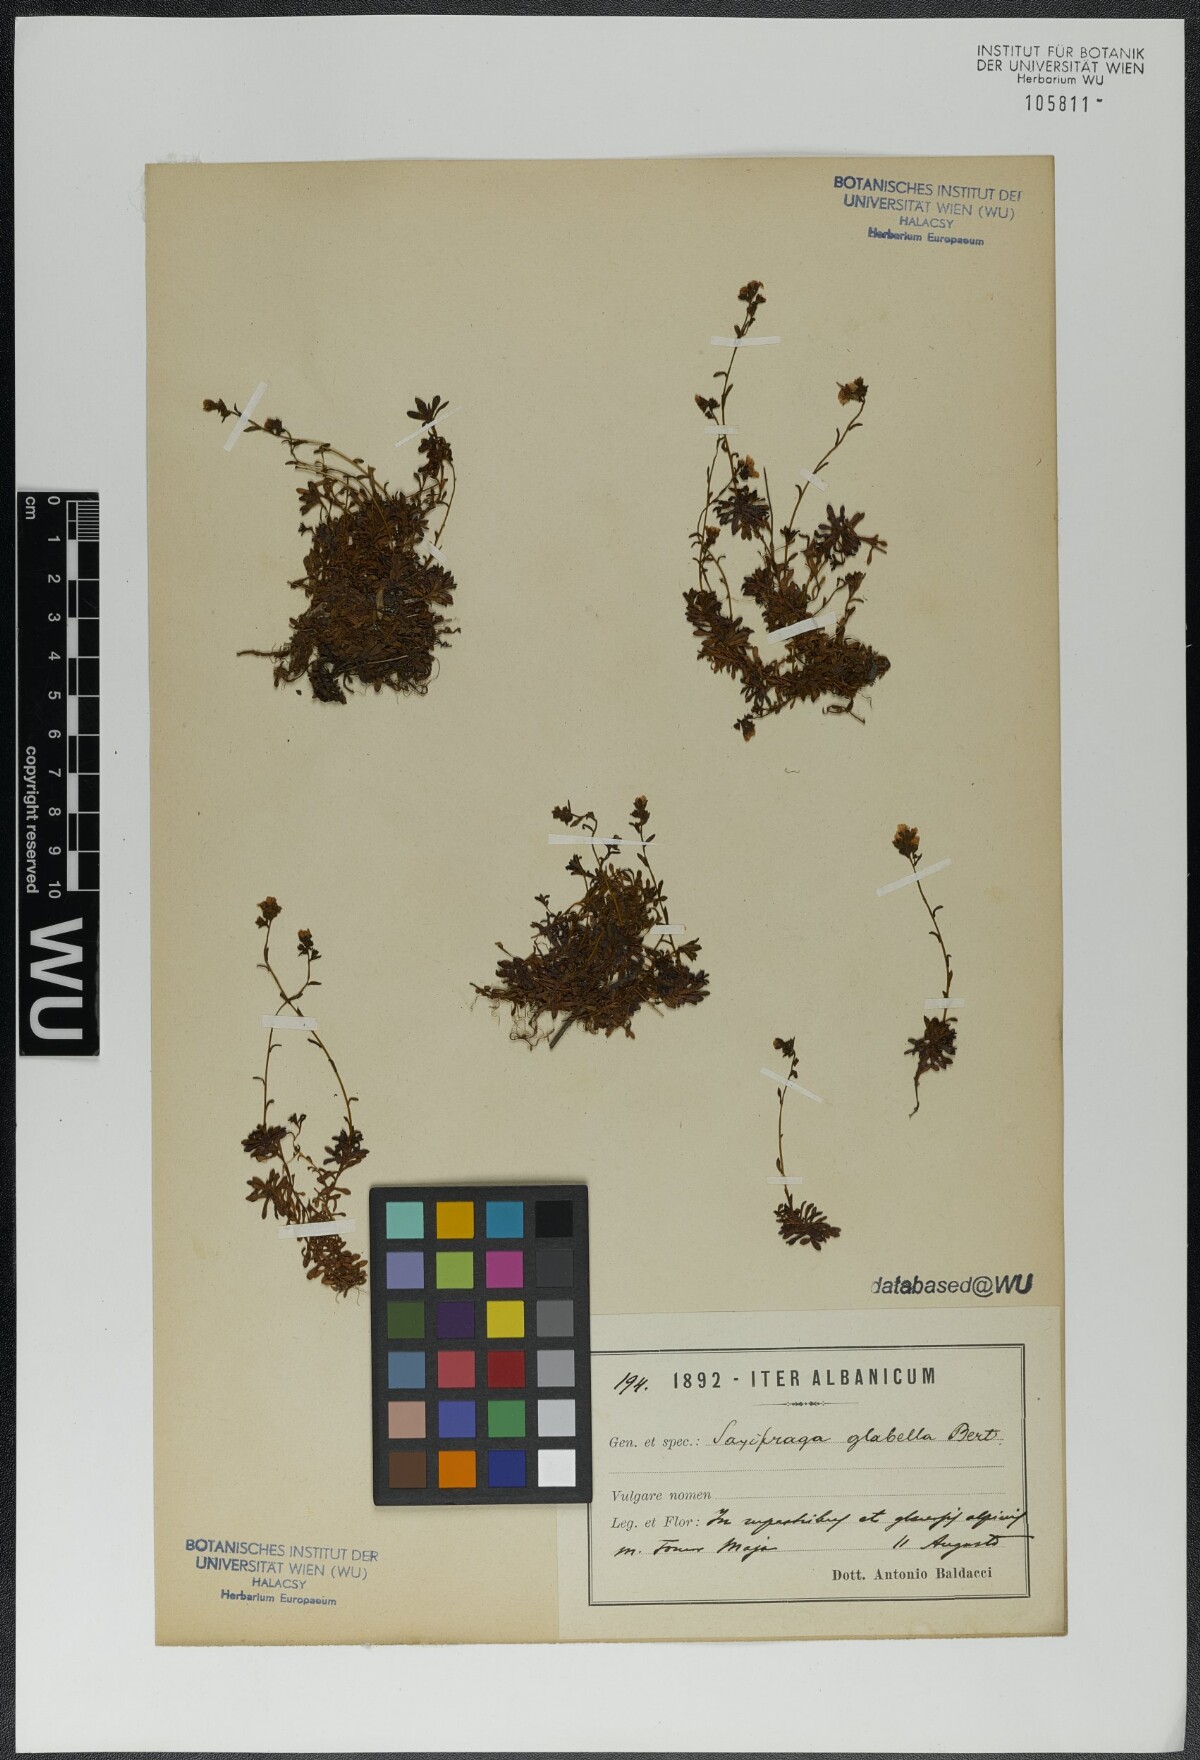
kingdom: Plantae
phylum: Tracheophyta
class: Magnoliopsida
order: Saxifragales
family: Saxifragaceae
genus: Saxifraga
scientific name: Saxifraga glabella
